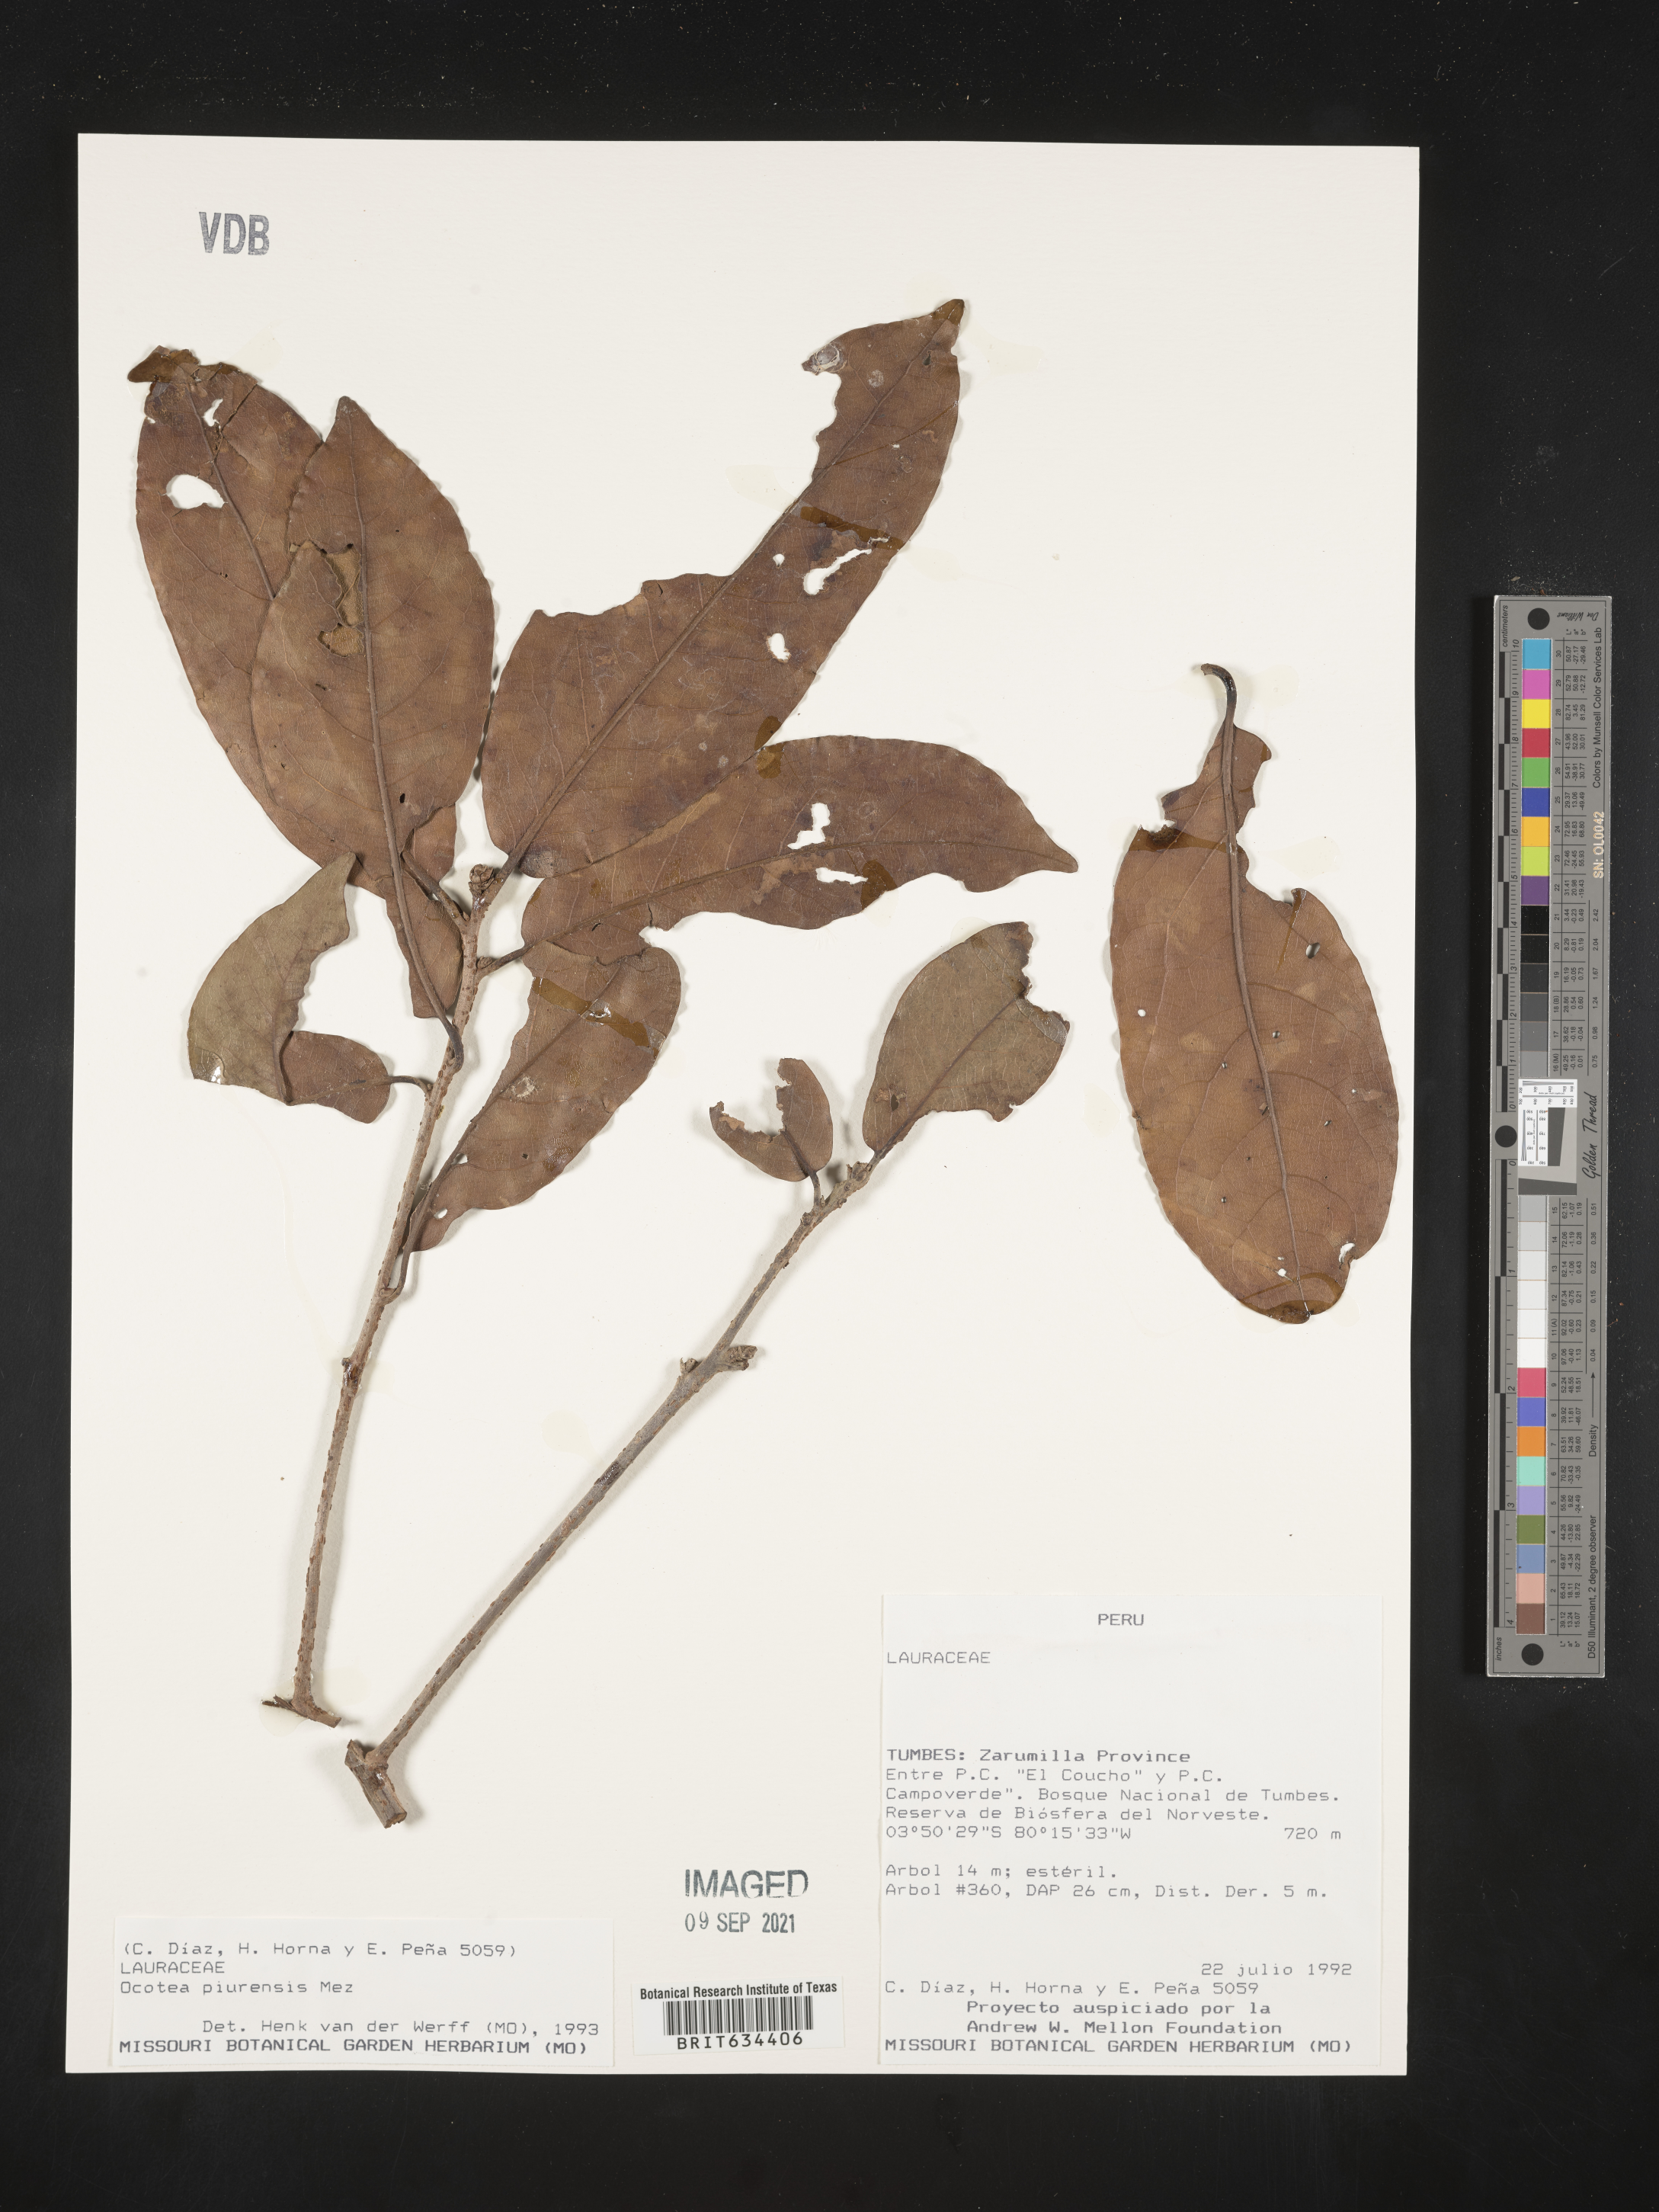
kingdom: Plantae
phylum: Tracheophyta
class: Magnoliopsida
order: Laurales
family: Lauraceae
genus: Ocotea
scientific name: Ocotea
